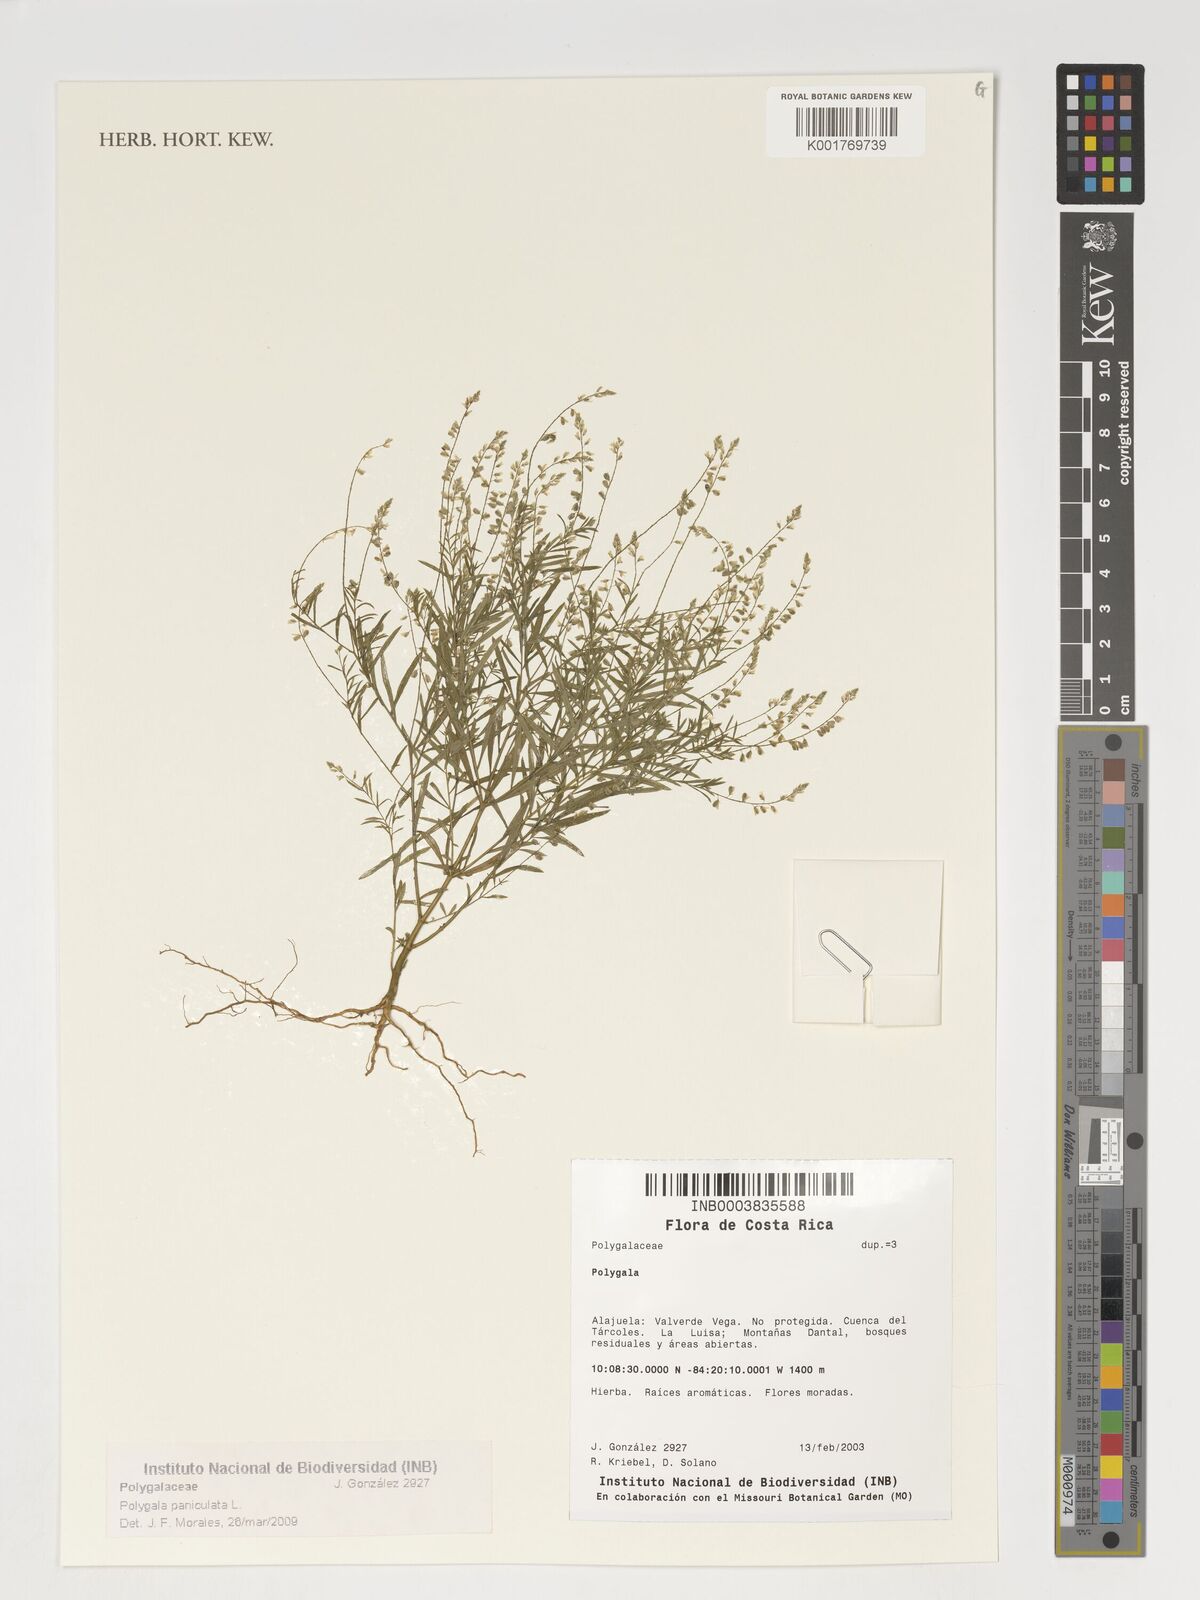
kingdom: Plantae
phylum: Tracheophyta
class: Magnoliopsida
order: Fabales
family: Polygalaceae
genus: Polygala
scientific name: Polygala paniculata
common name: Orosne
